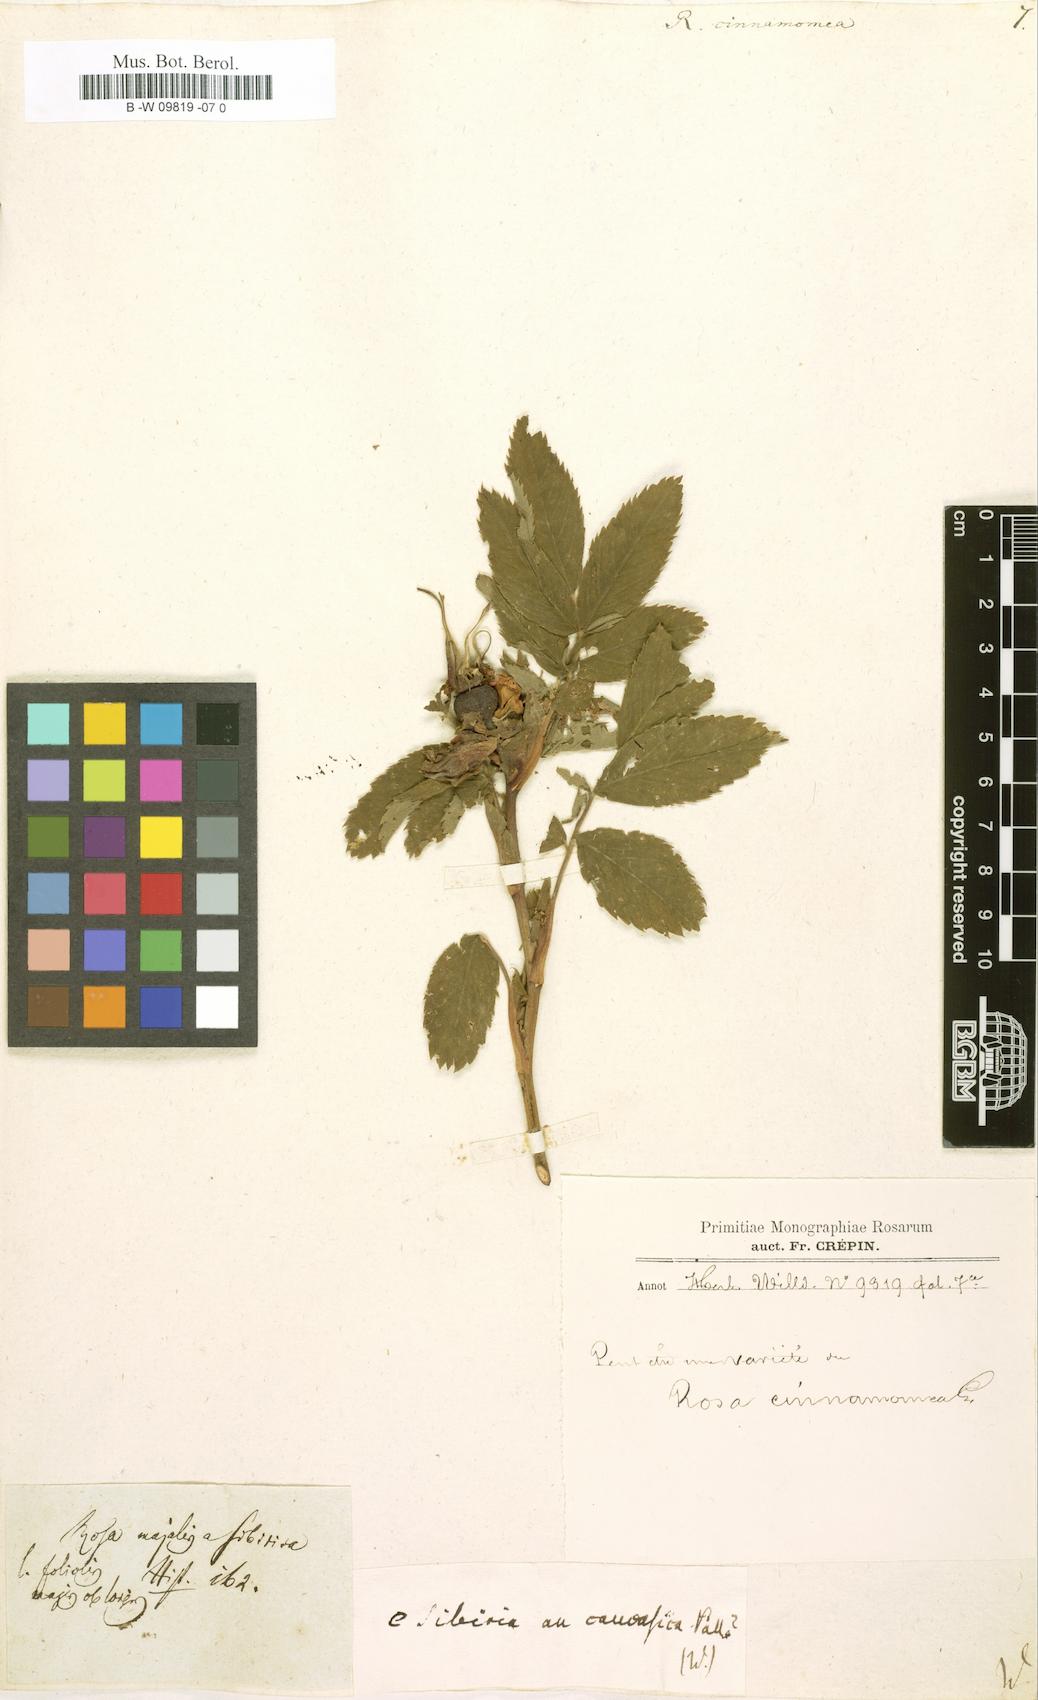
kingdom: Plantae
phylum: Tracheophyta
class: Magnoliopsida
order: Rosales
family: Rosaceae
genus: Rosa
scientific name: Rosa pendulina
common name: Alpine rose
